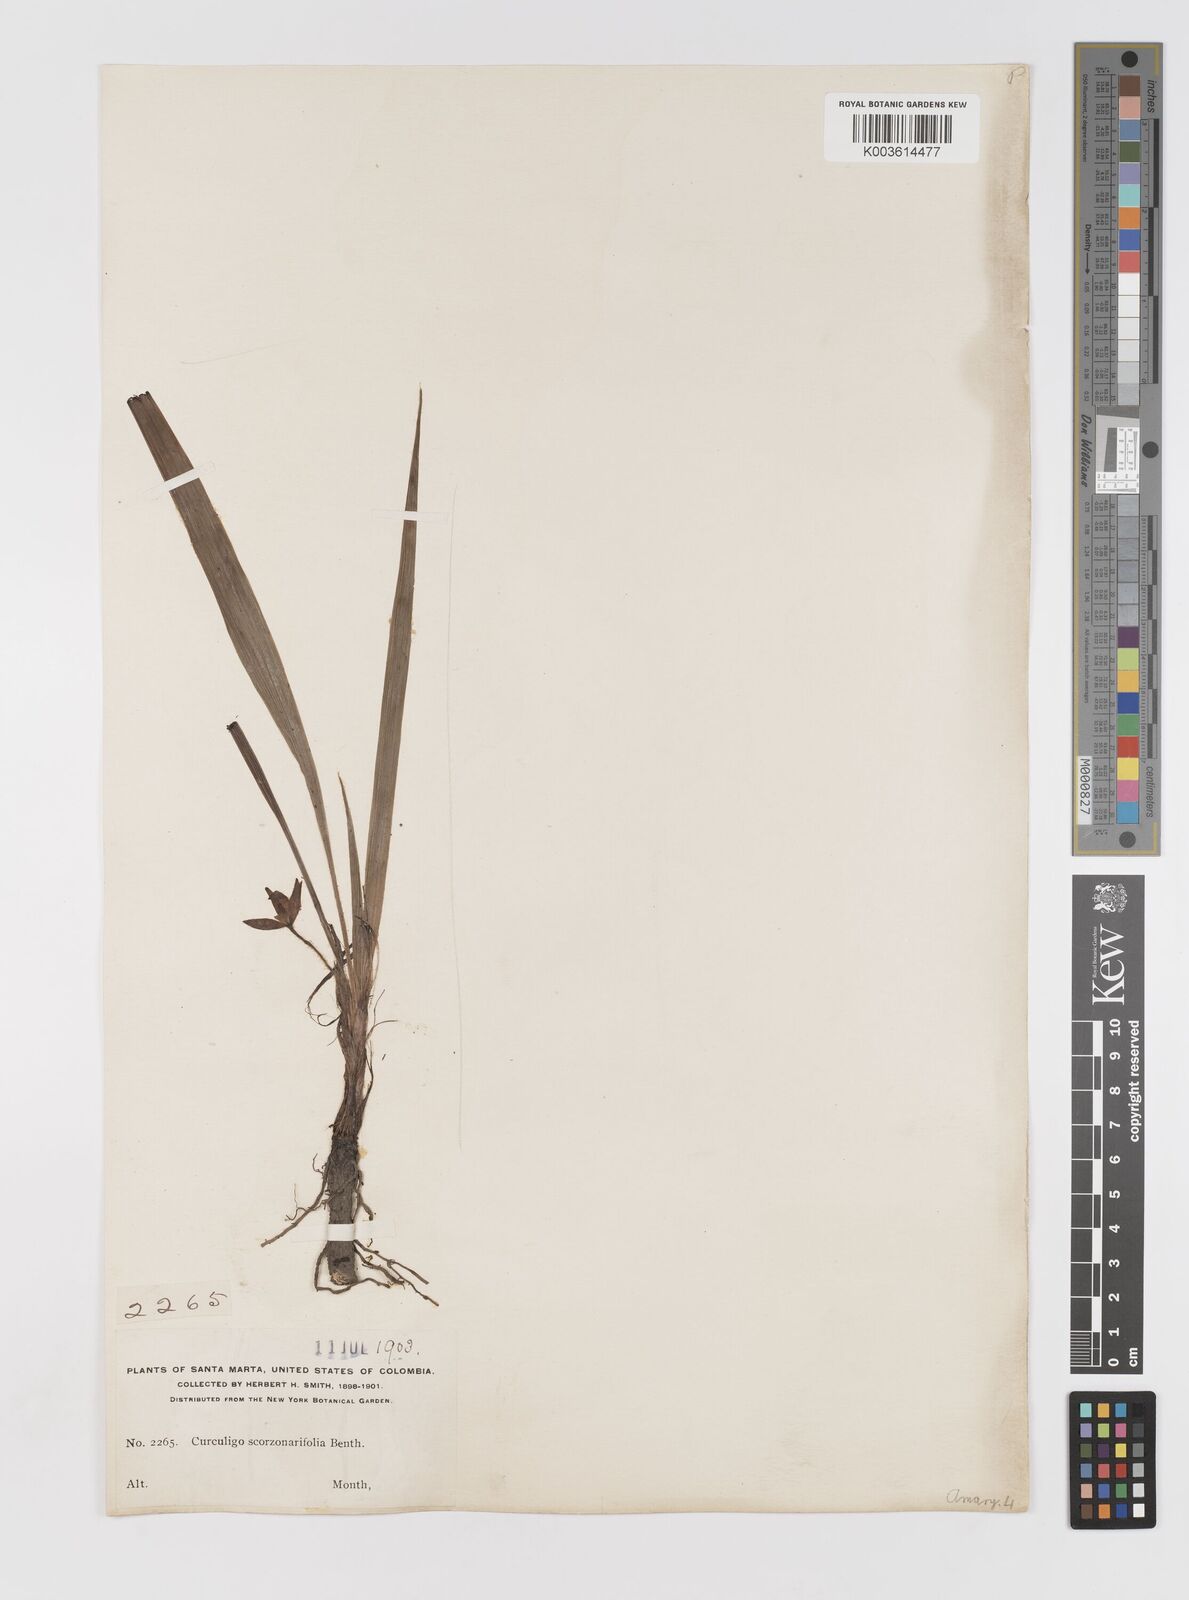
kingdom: Plantae
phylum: Tracheophyta
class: Liliopsida
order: Asparagales
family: Hypoxidaceae
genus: Curculigo
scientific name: Curculigo scorzonerifolia
